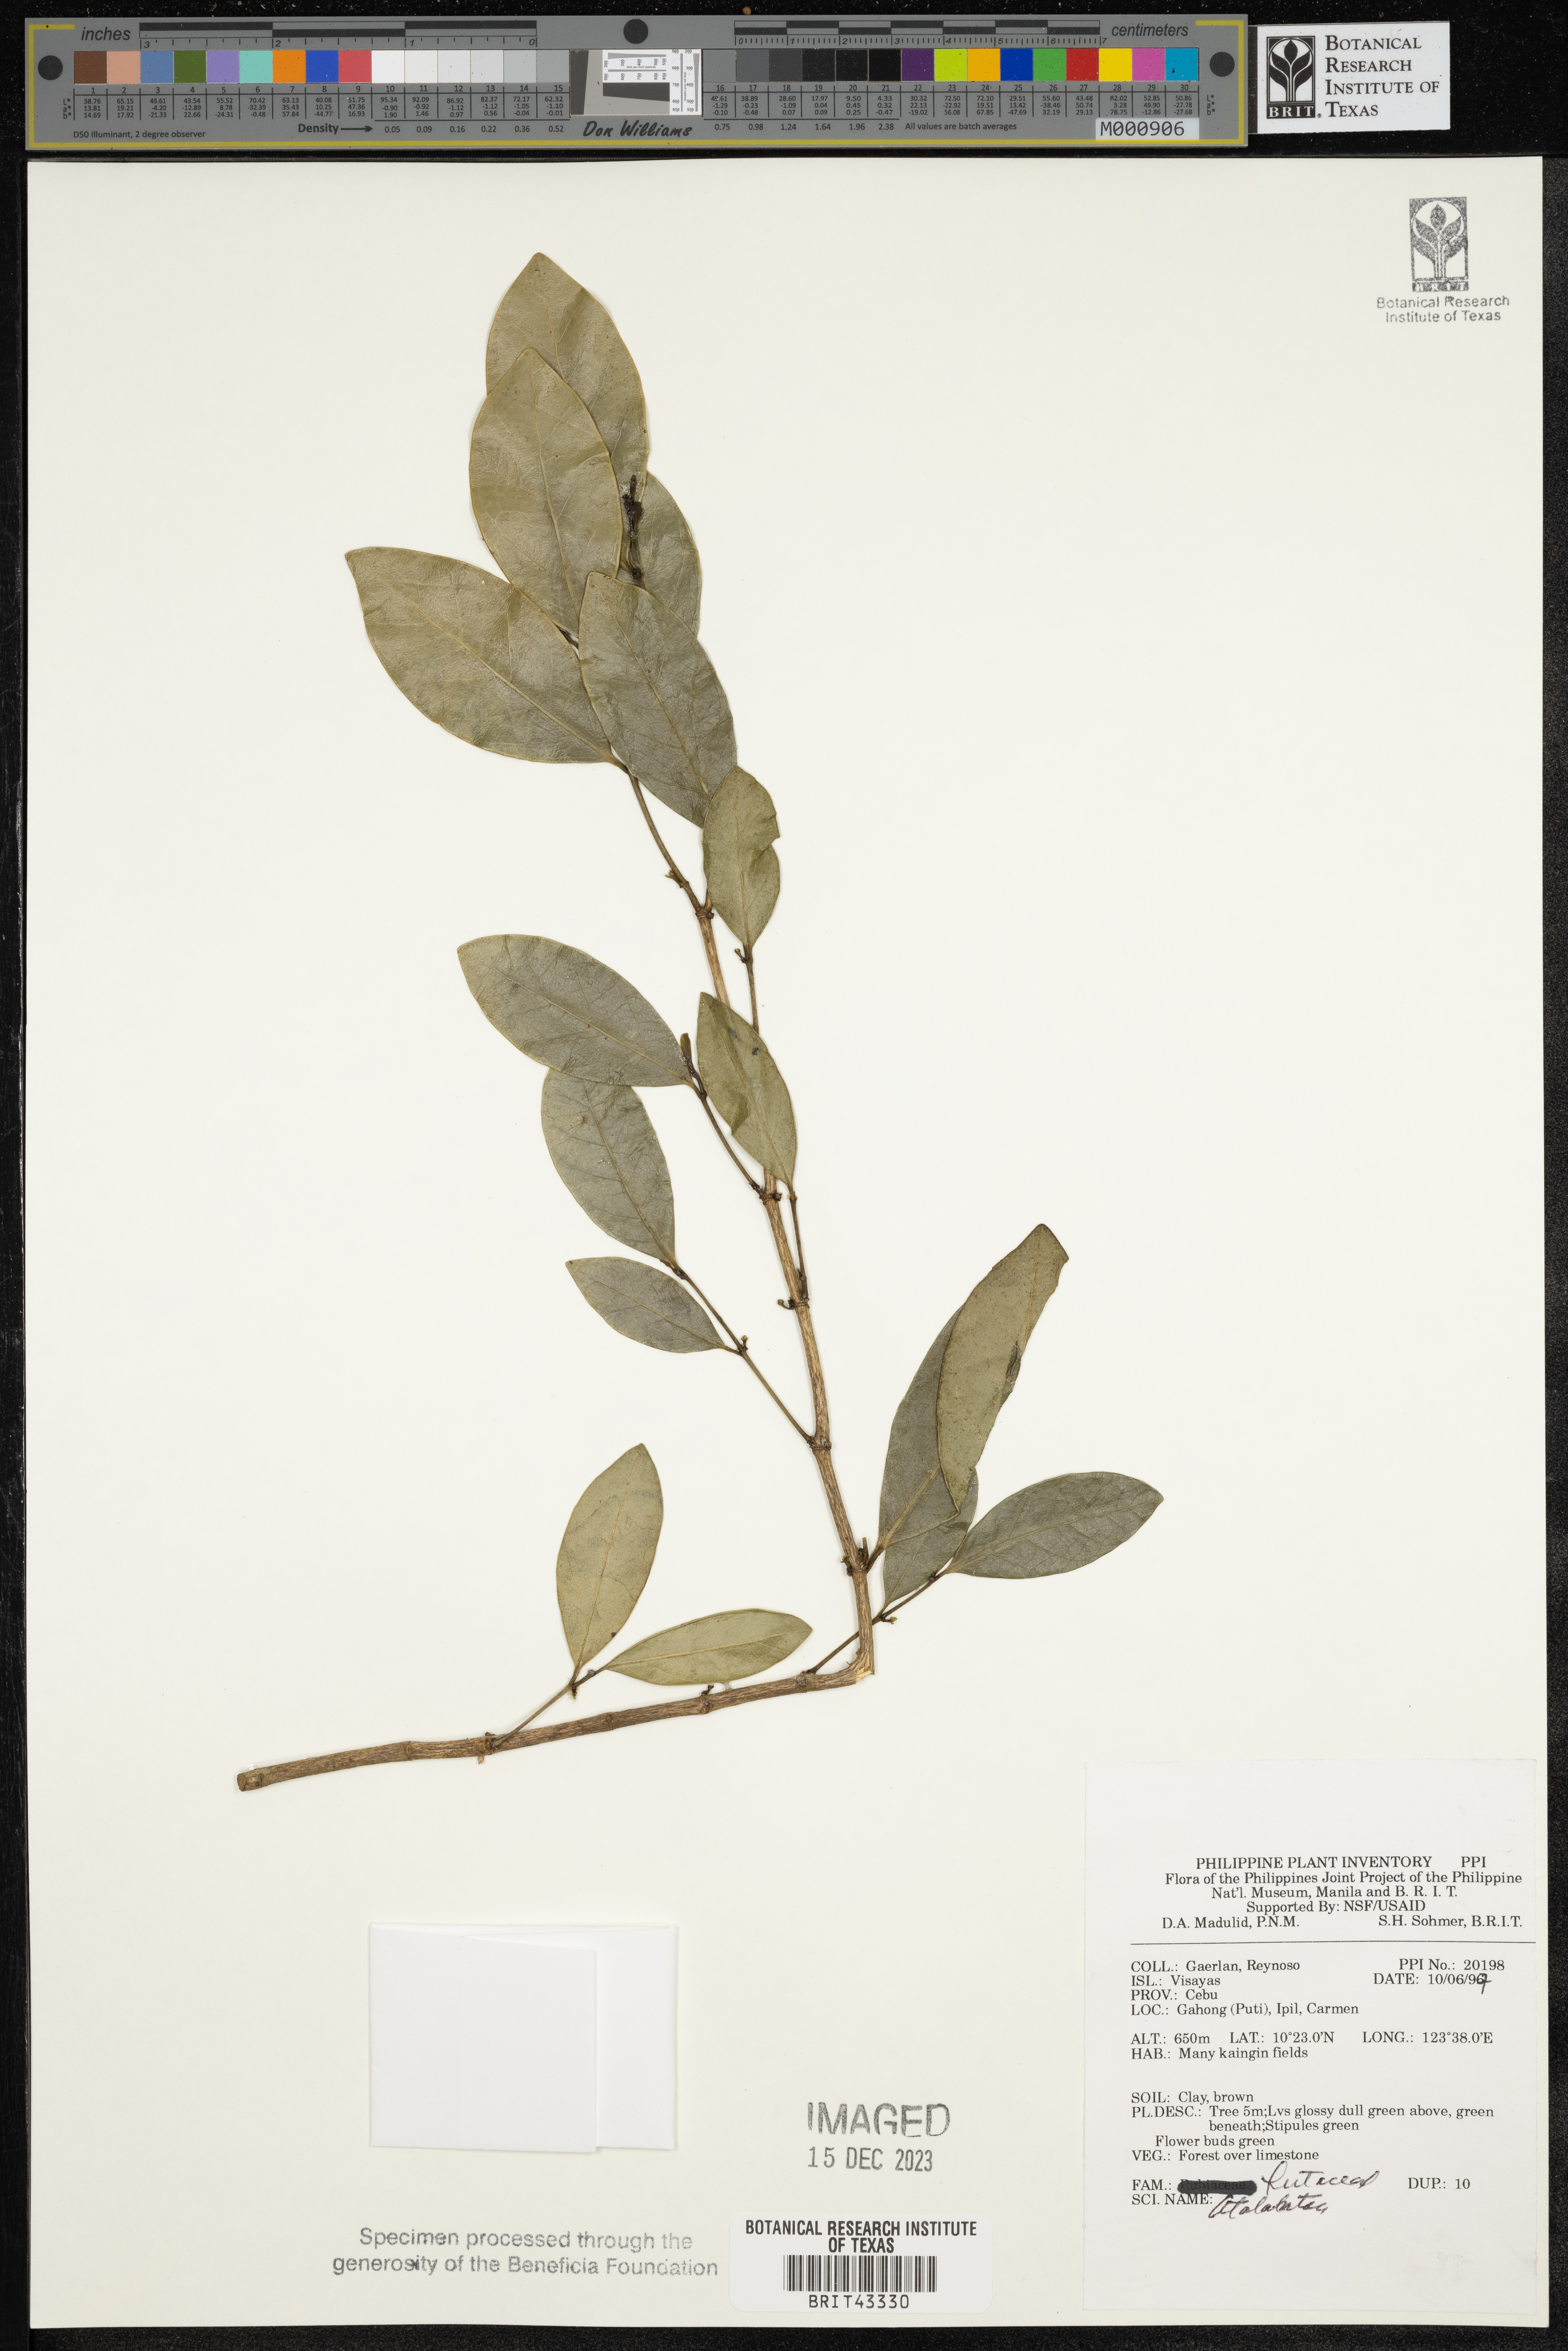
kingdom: Plantae
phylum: Tracheophyta
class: Magnoliopsida
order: Sapindales
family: Rutaceae
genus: Atalantia
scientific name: Atalantia
